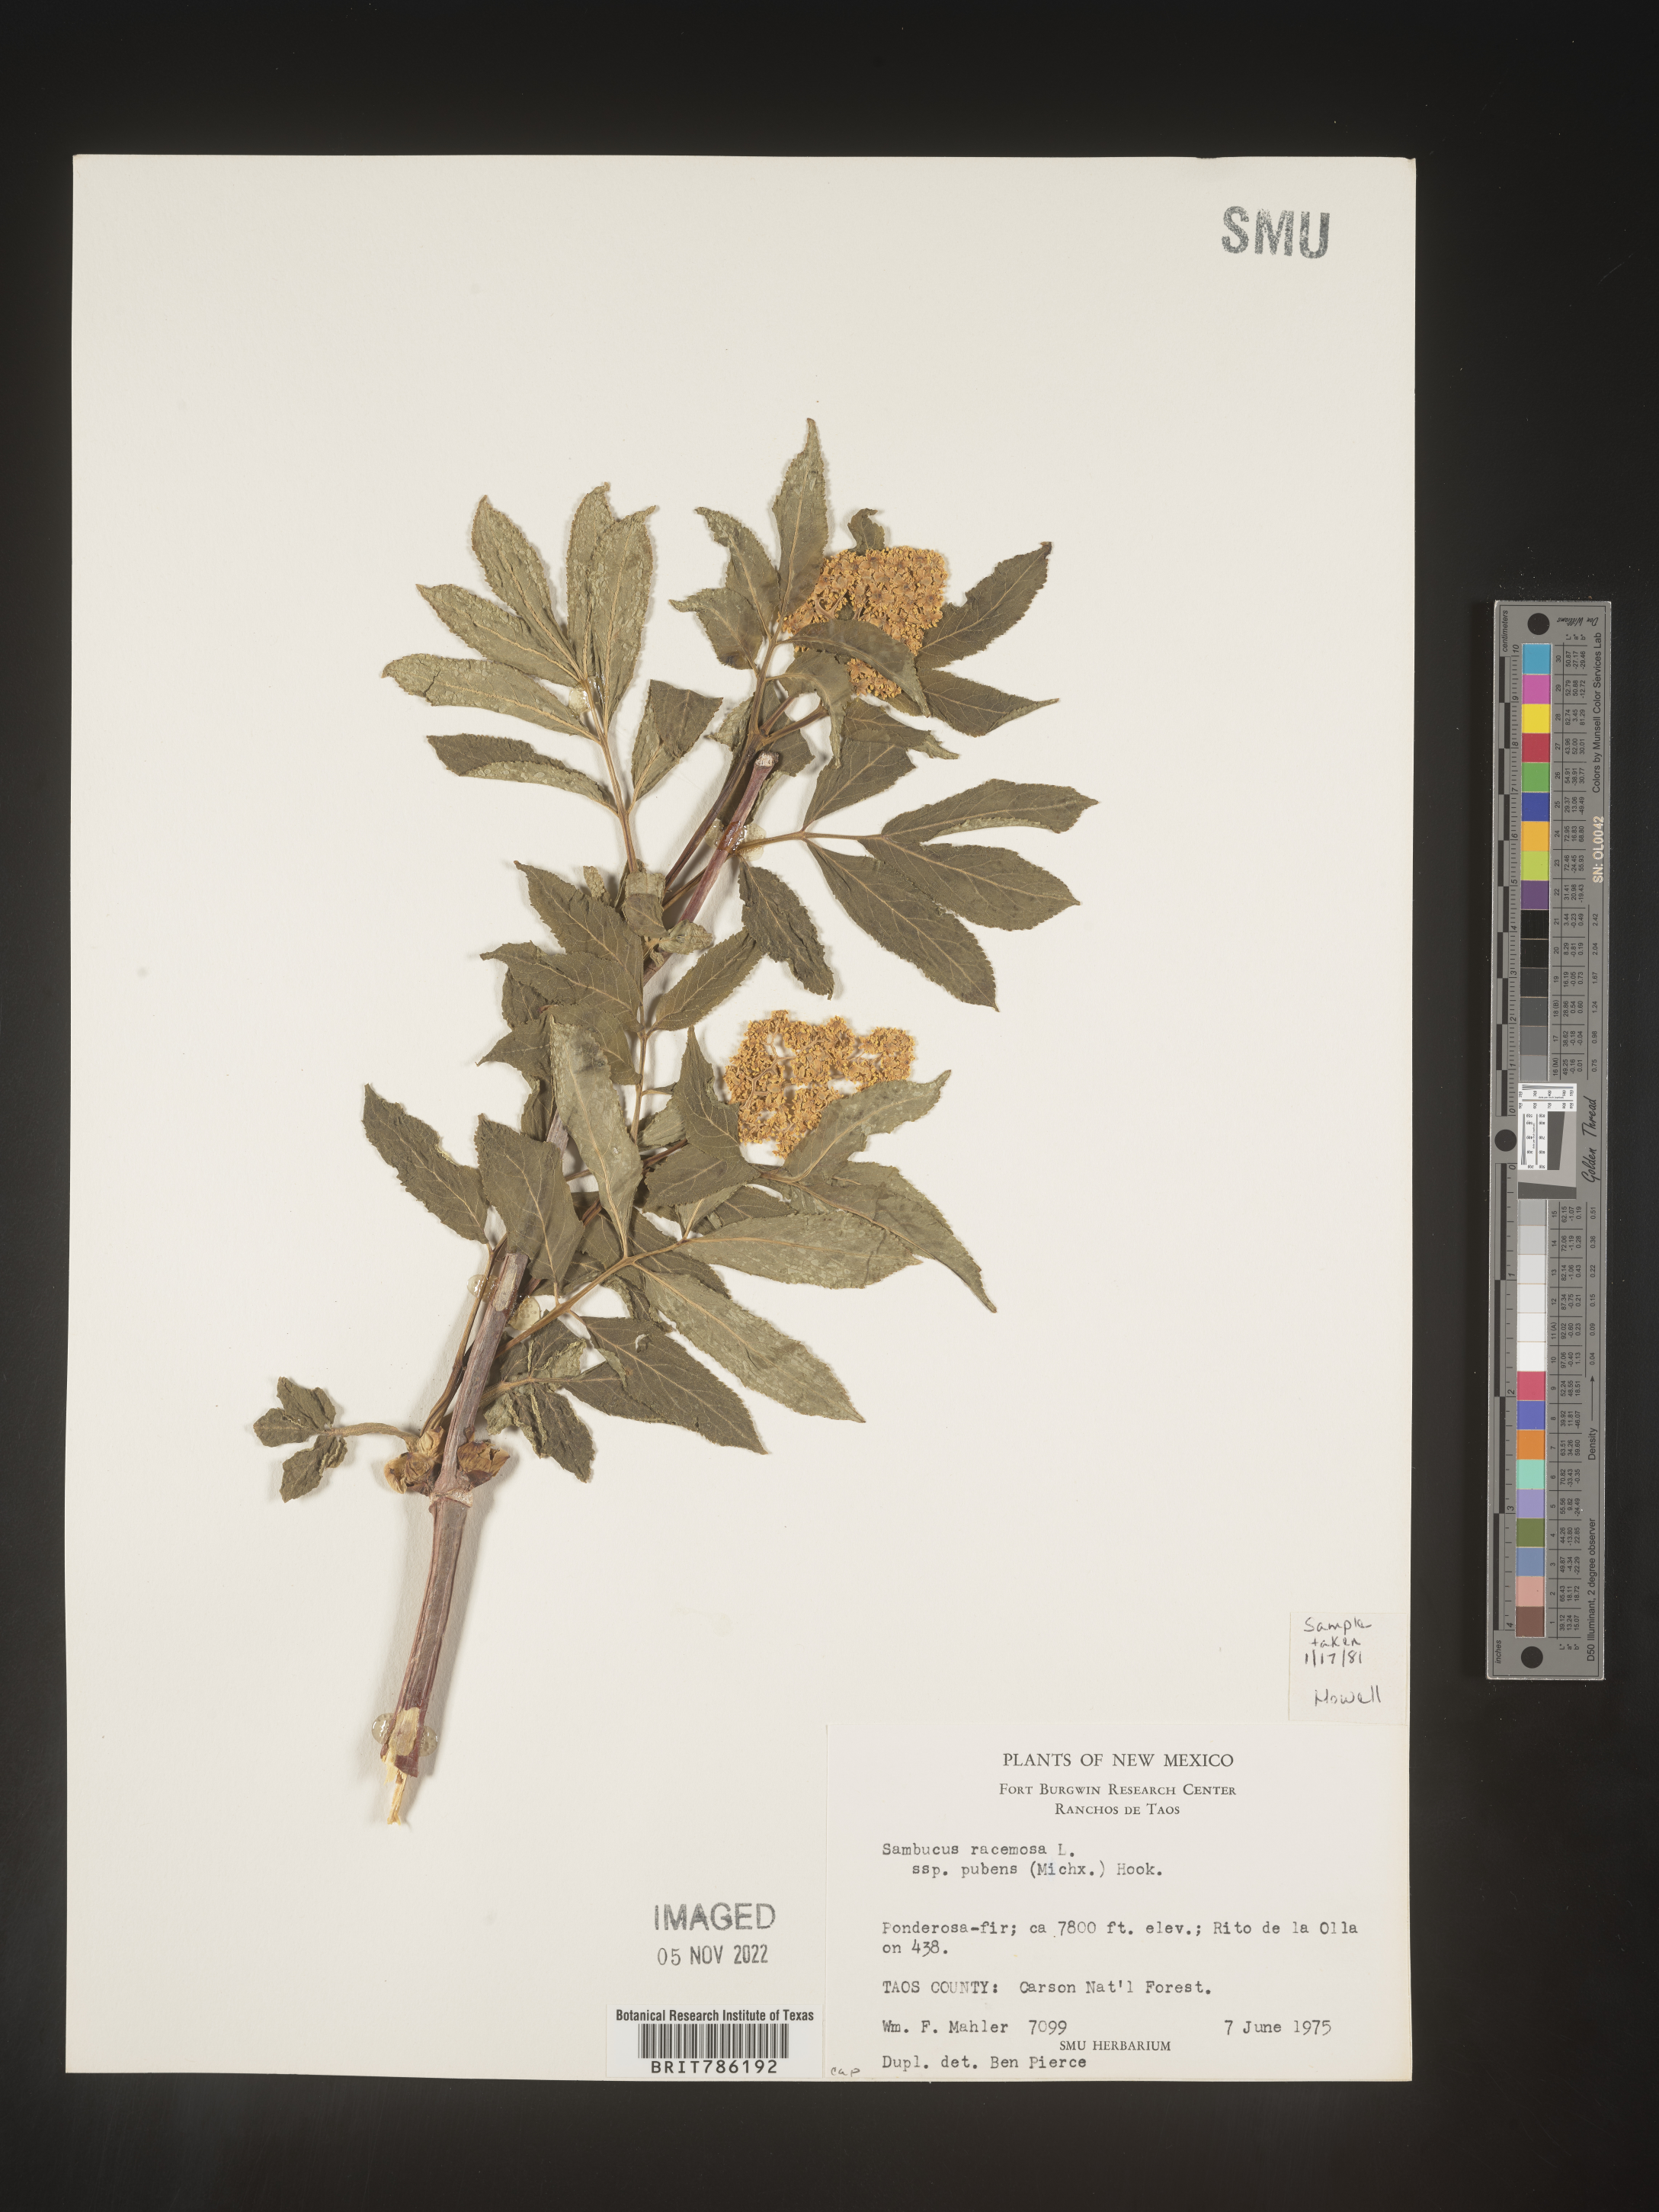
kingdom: Plantae
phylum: Tracheophyta
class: Magnoliopsida
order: Dipsacales
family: Viburnaceae
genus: Sambucus
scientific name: Sambucus
